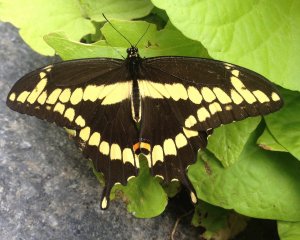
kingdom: Animalia
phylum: Arthropoda
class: Insecta
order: Lepidoptera
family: Papilionidae
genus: Papilio
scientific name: Papilio cresphontes
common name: Eastern Giant Swallowtail
